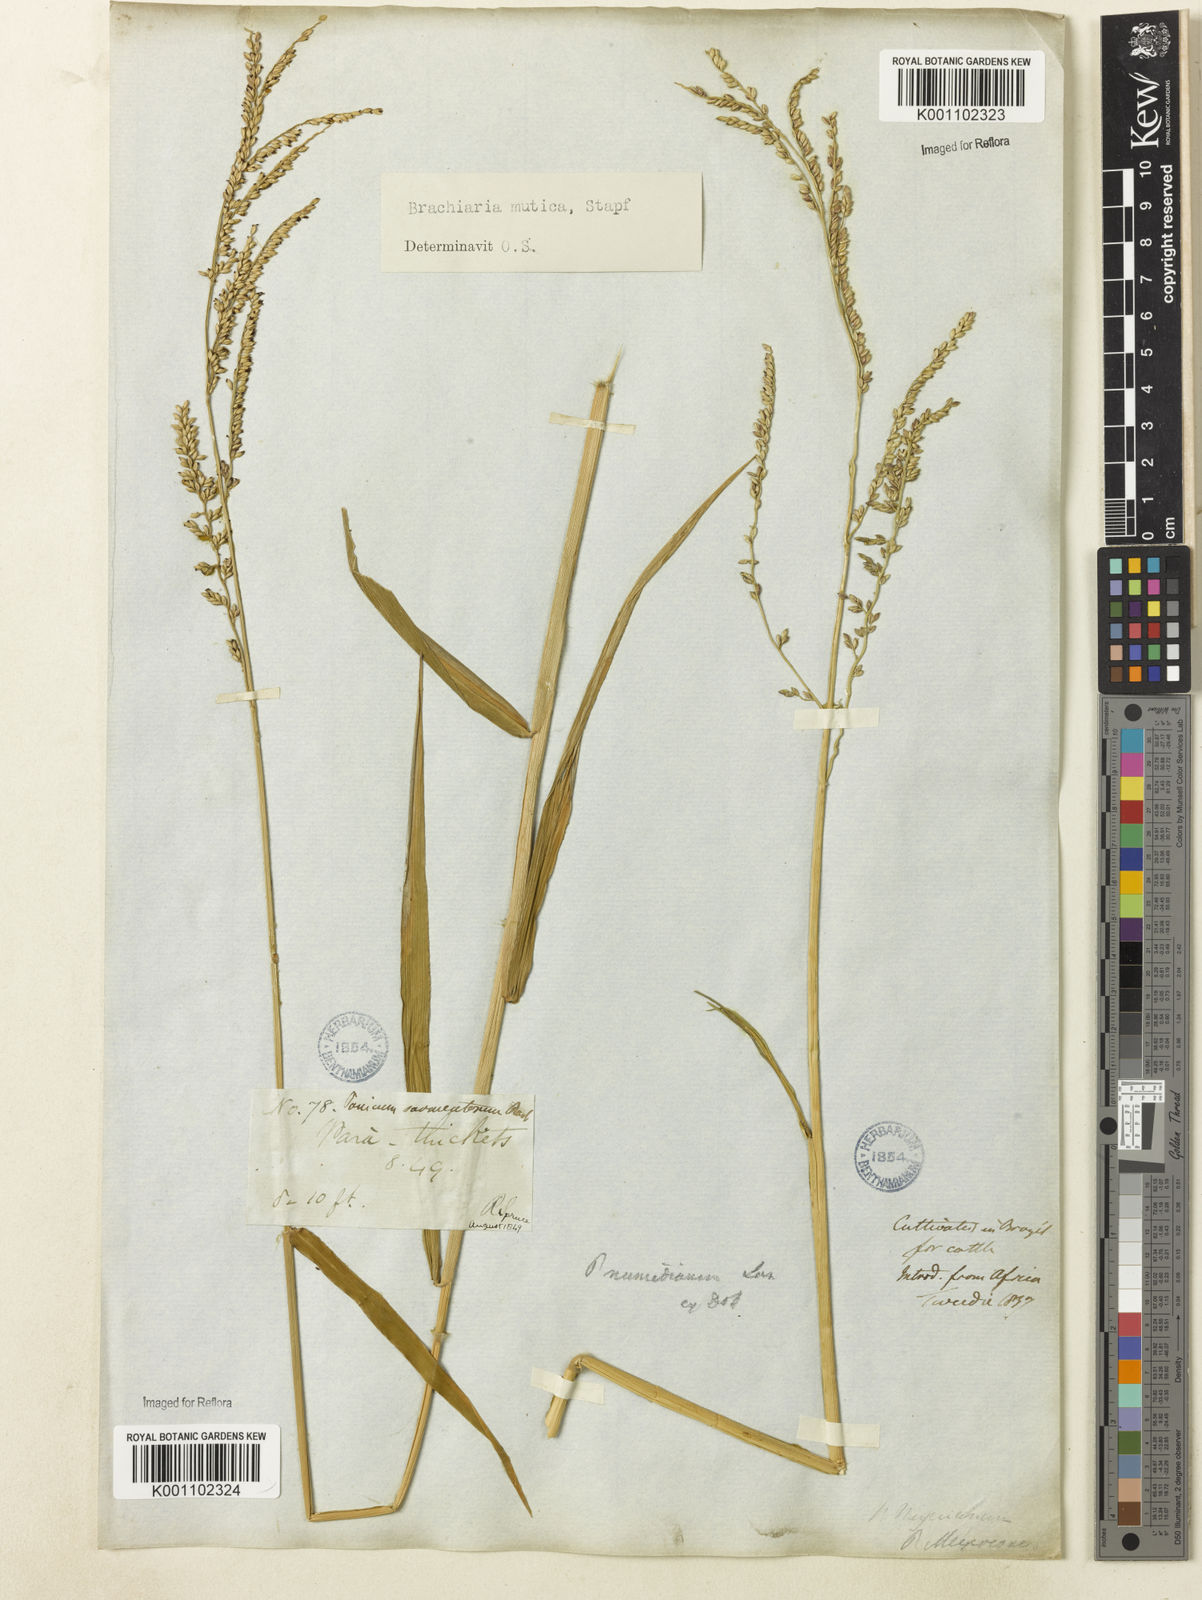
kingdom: Plantae
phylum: Tracheophyta
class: Liliopsida
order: Poales
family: Poaceae
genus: Urochloa
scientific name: Urochloa mutica
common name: Para grass
